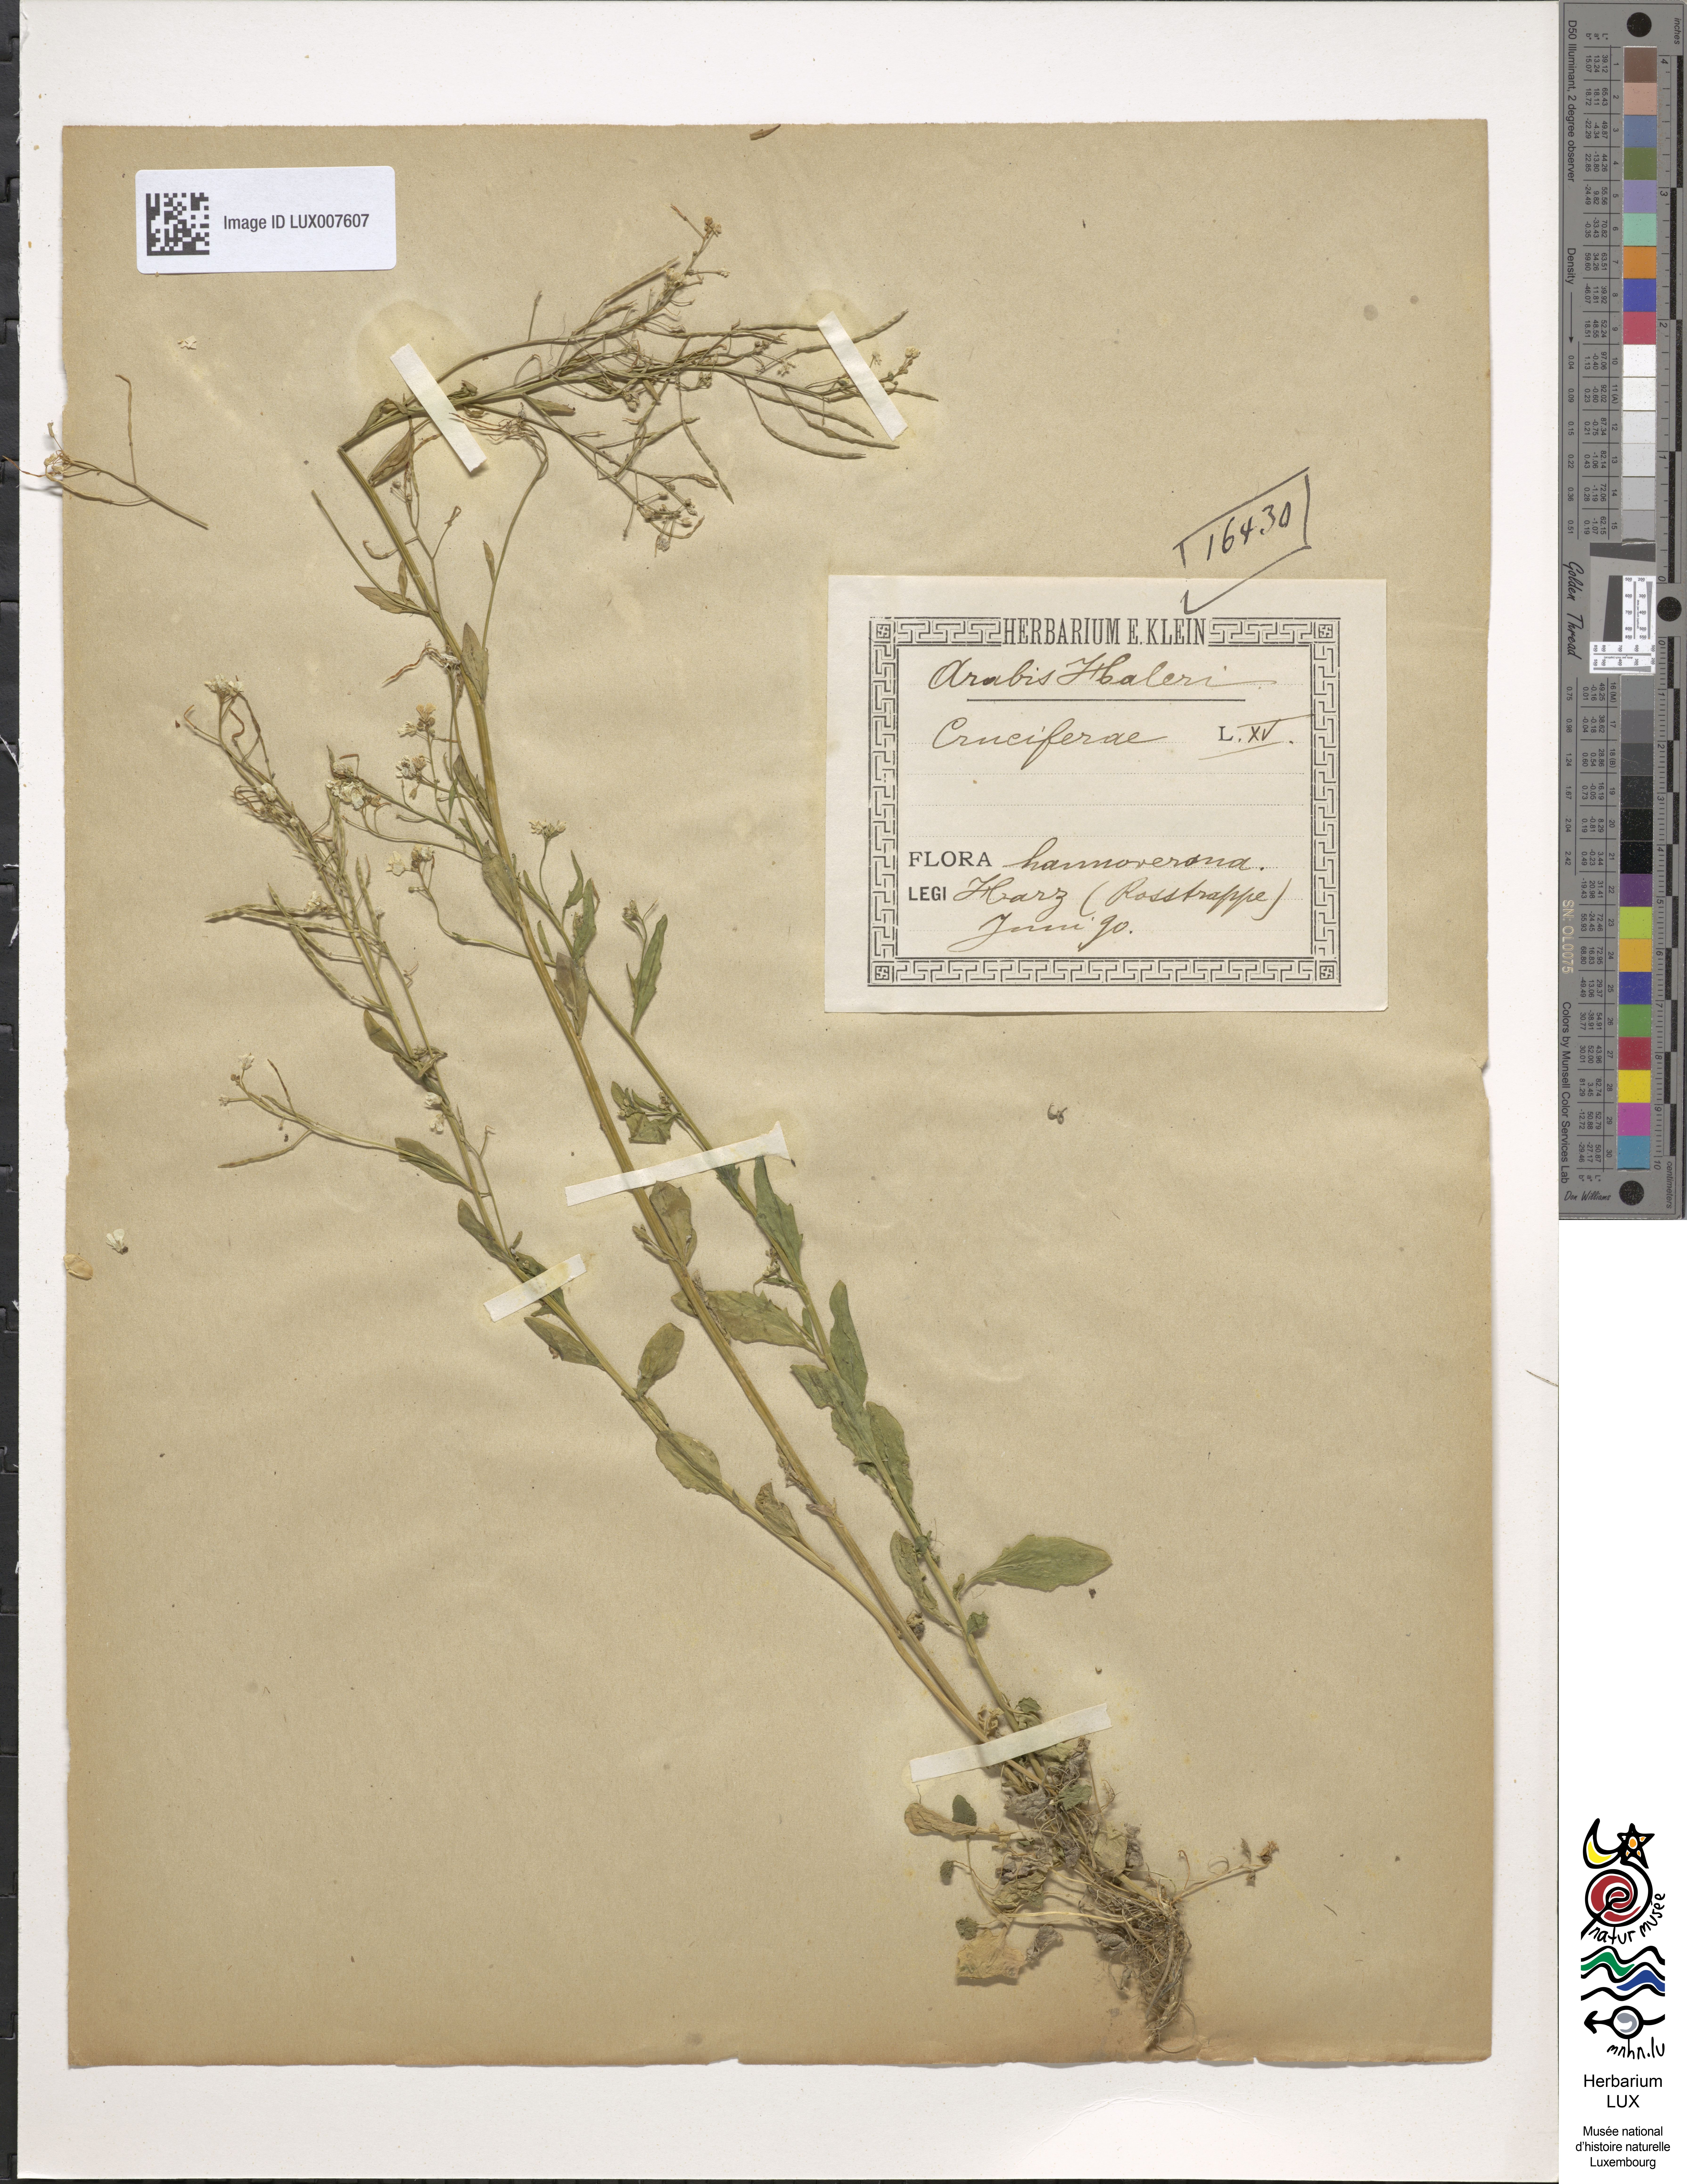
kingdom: Plantae
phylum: Tracheophyta
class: Magnoliopsida
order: Brassicales
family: Brassicaceae
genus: Arabidopsis
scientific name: Arabidopsis halleri
